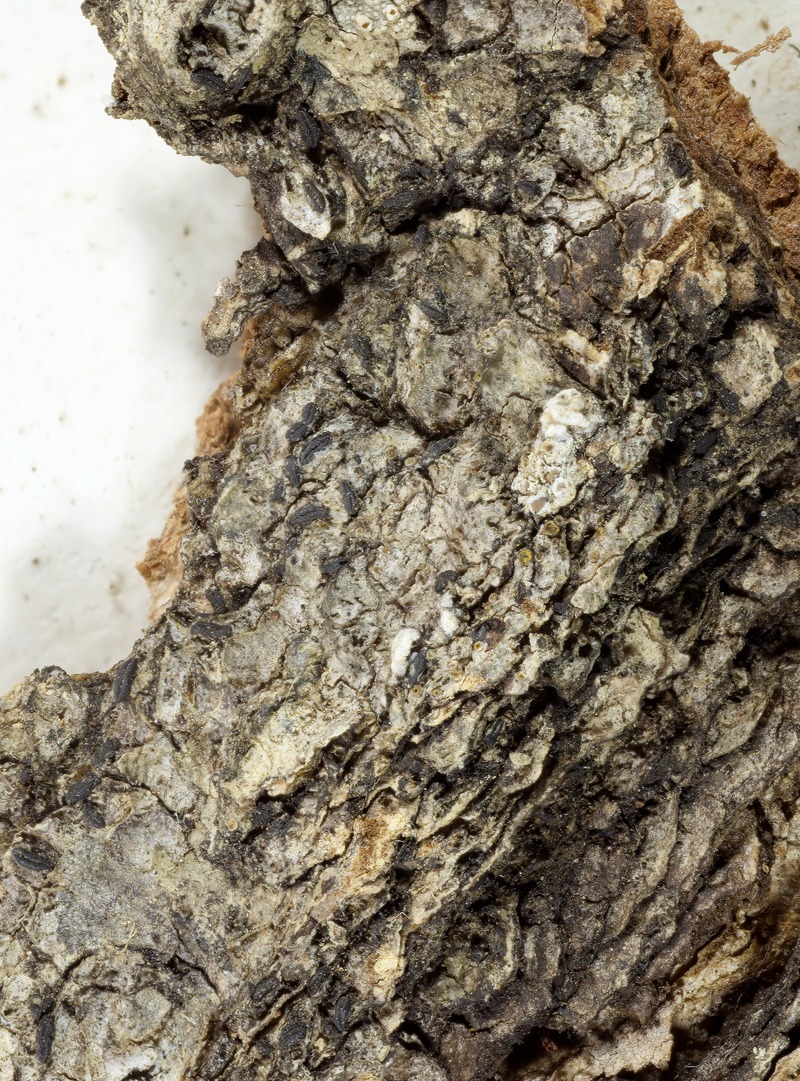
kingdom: Fungi
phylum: Ascomycota
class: Dothideomycetes
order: Hysteriales
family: Hysteriaceae
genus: Gloniopsis
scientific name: Gloniopsis subrugosa
